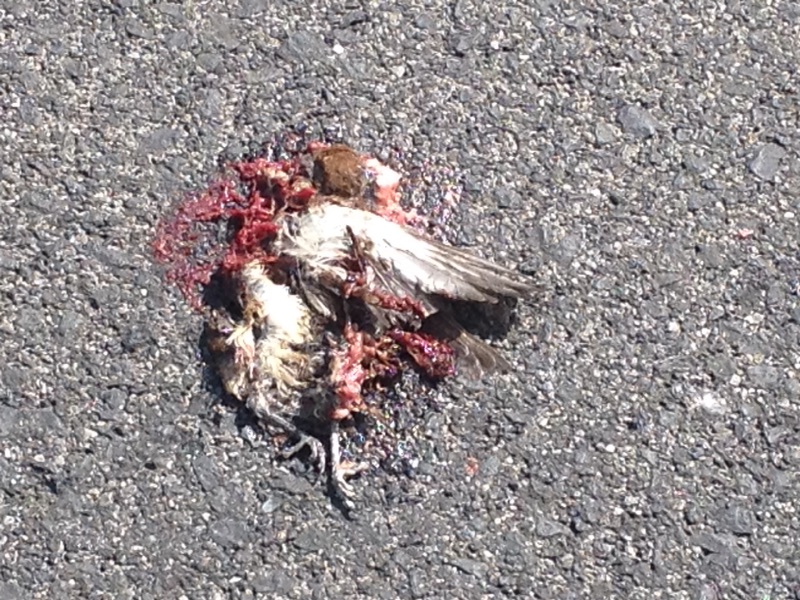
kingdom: Animalia
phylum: Chordata
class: Aves
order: Passeriformes
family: Passeridae
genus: Passer
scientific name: Passer montanus
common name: Eurasian tree sparrow
